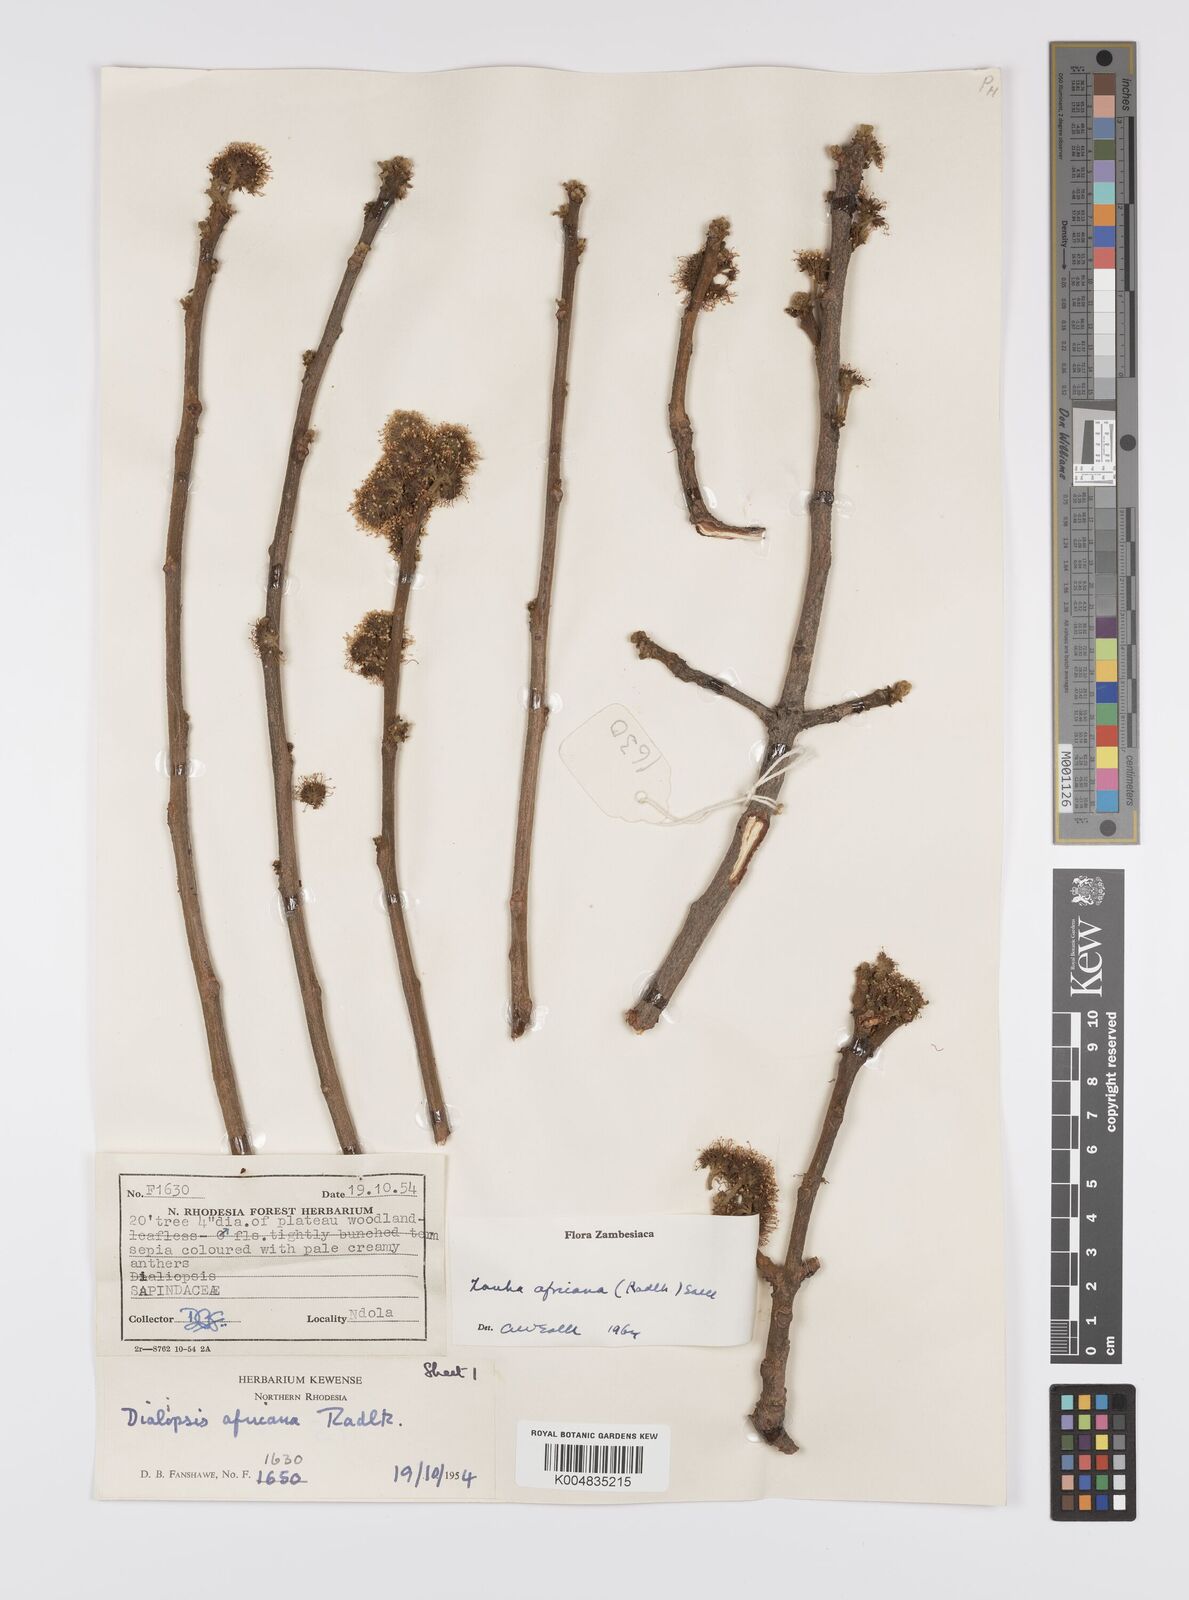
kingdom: Plantae
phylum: Tracheophyta
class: Magnoliopsida
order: Sapindales
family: Sapindaceae
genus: Zanha
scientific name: Zanha africana
